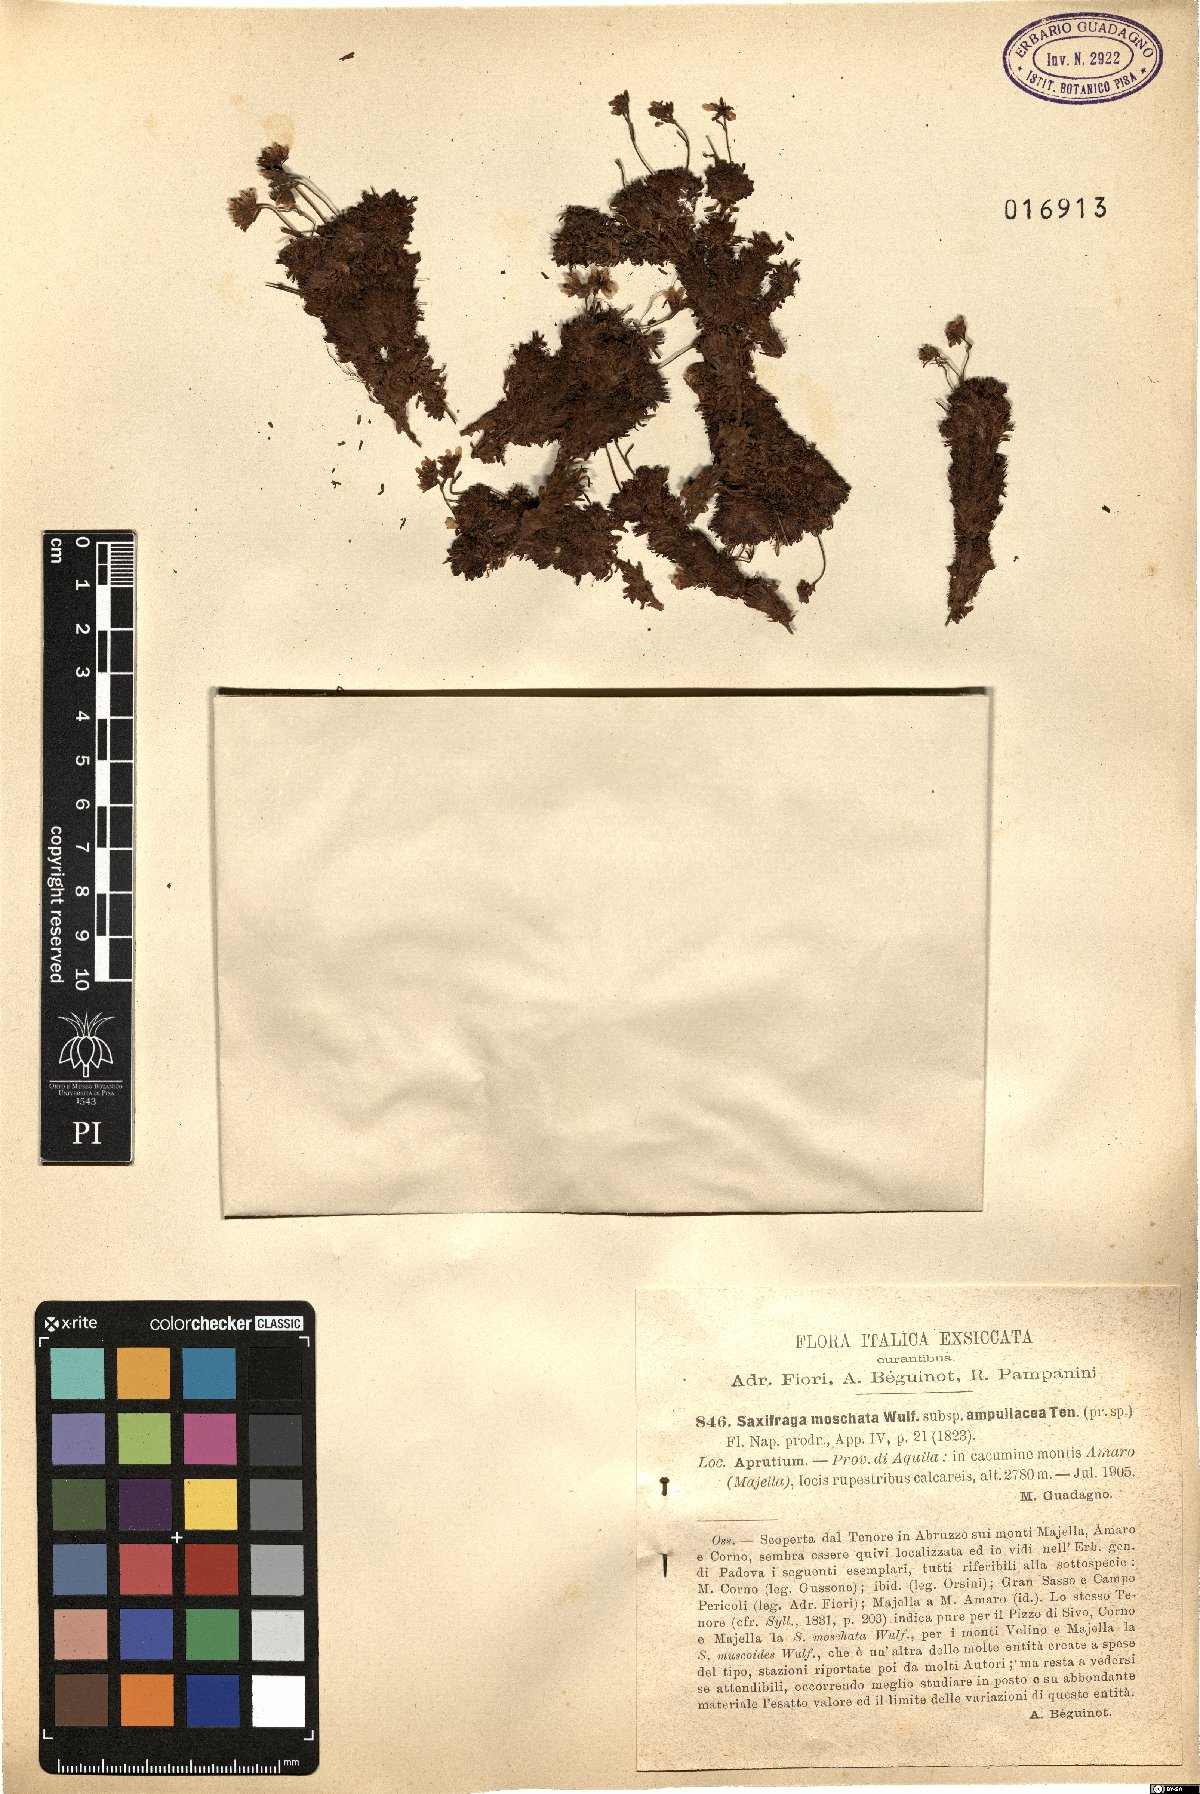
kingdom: Plantae
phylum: Tracheophyta
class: Magnoliopsida
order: Saxifragales
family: Saxifragaceae
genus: Saxifraga
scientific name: Saxifraga exarata
